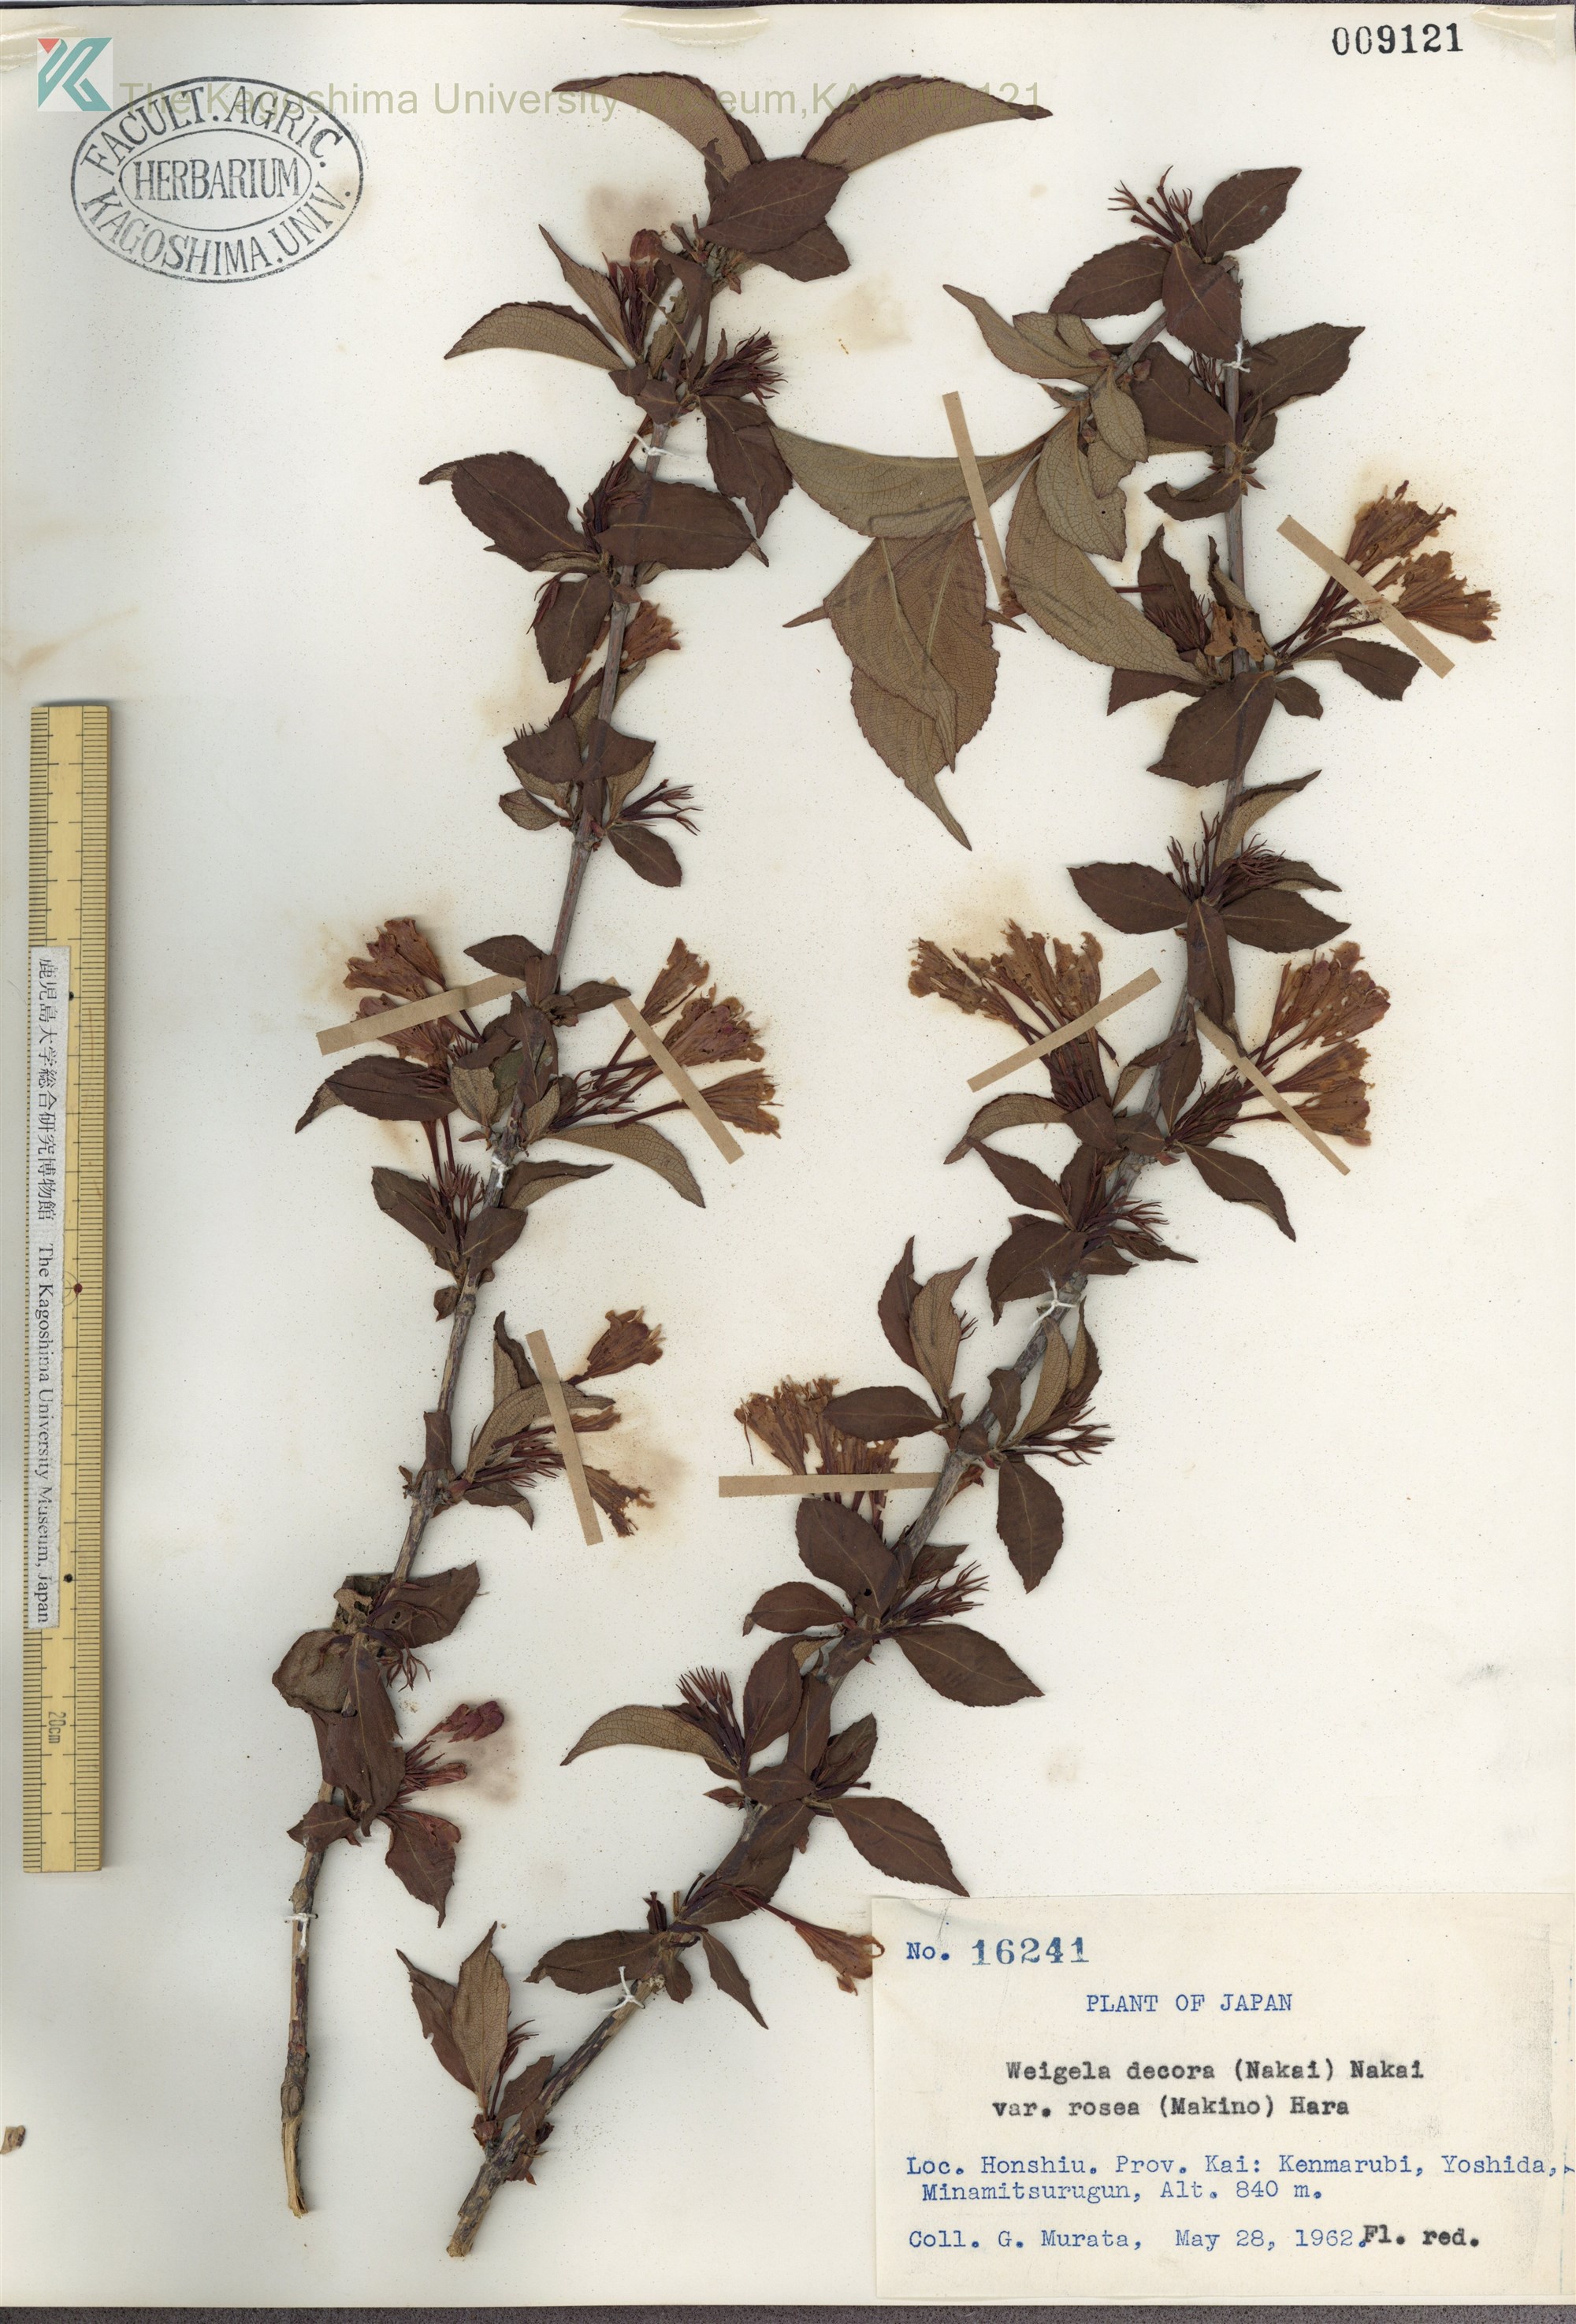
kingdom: Plantae
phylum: Tracheophyta
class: Magnoliopsida
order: Dipsacales
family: Caprifoliaceae
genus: Weigela
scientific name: Weigela decora
